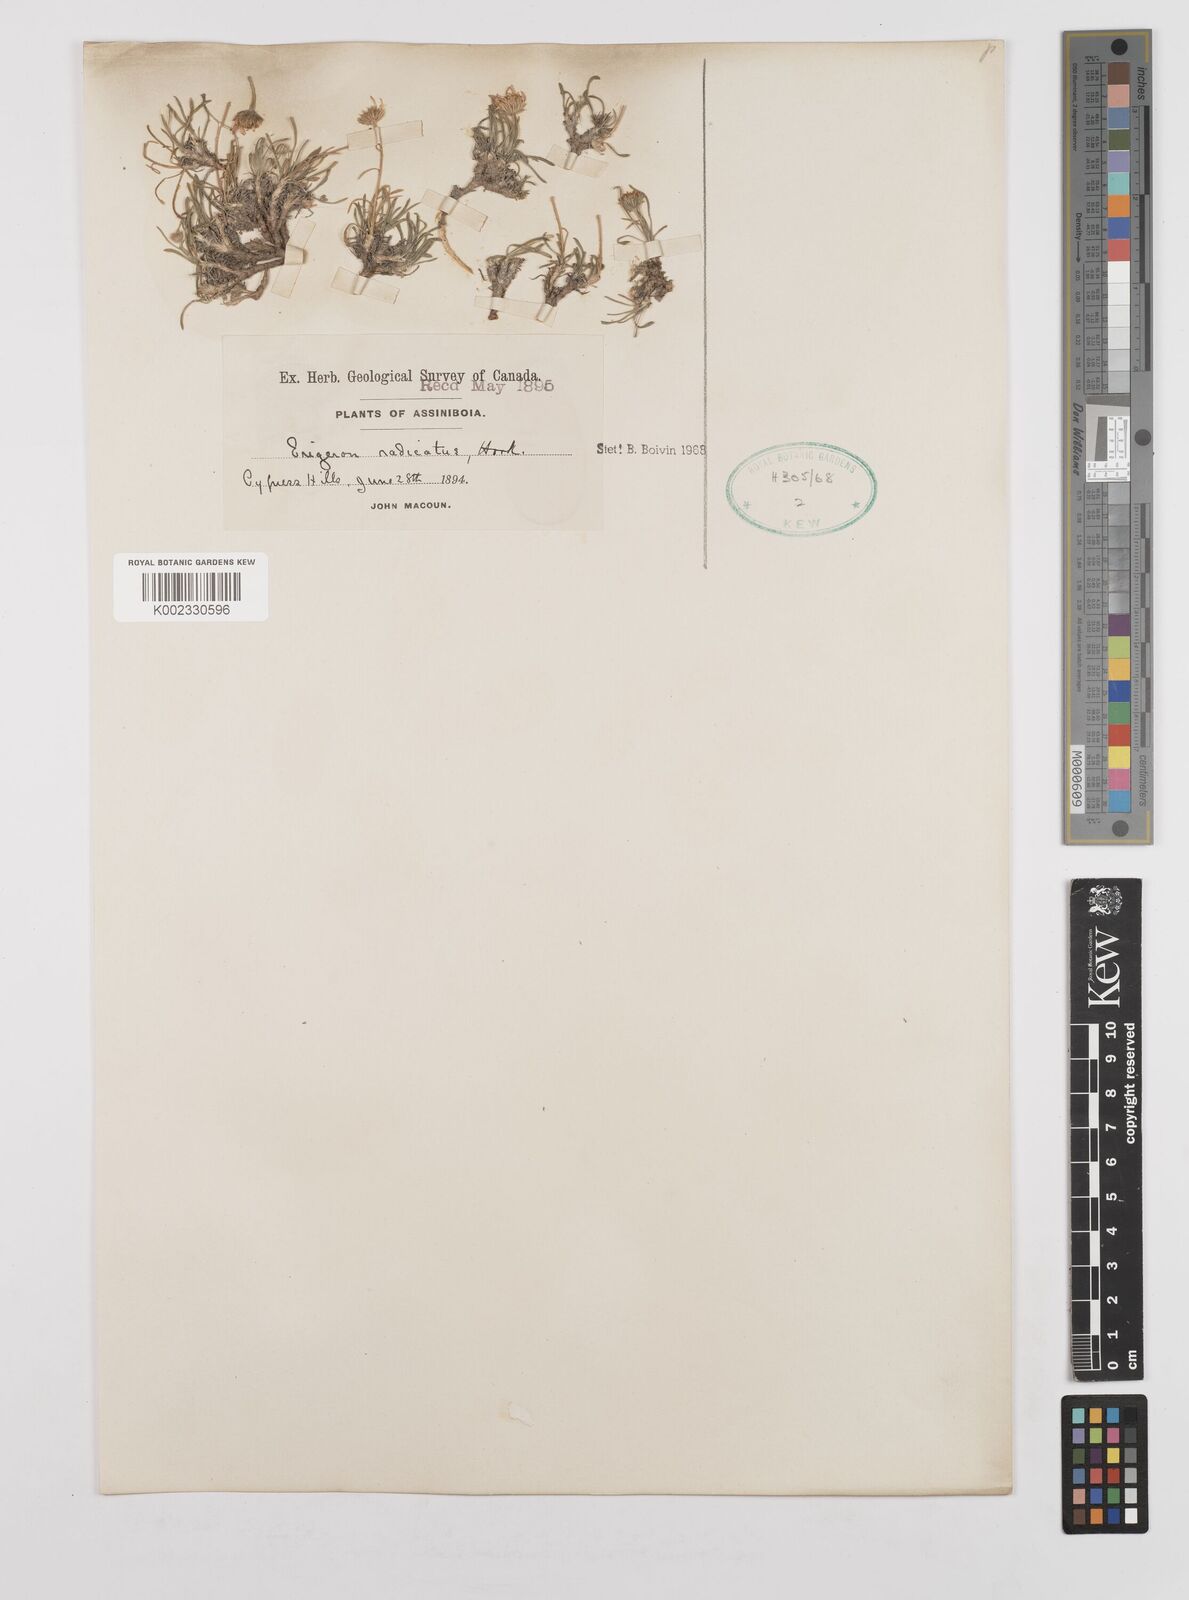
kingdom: Plantae
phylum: Tracheophyta
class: Magnoliopsida
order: Asterales
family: Asteraceae
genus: Erigeron
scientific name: Erigeron radicatus
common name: Dwarf fleabane
